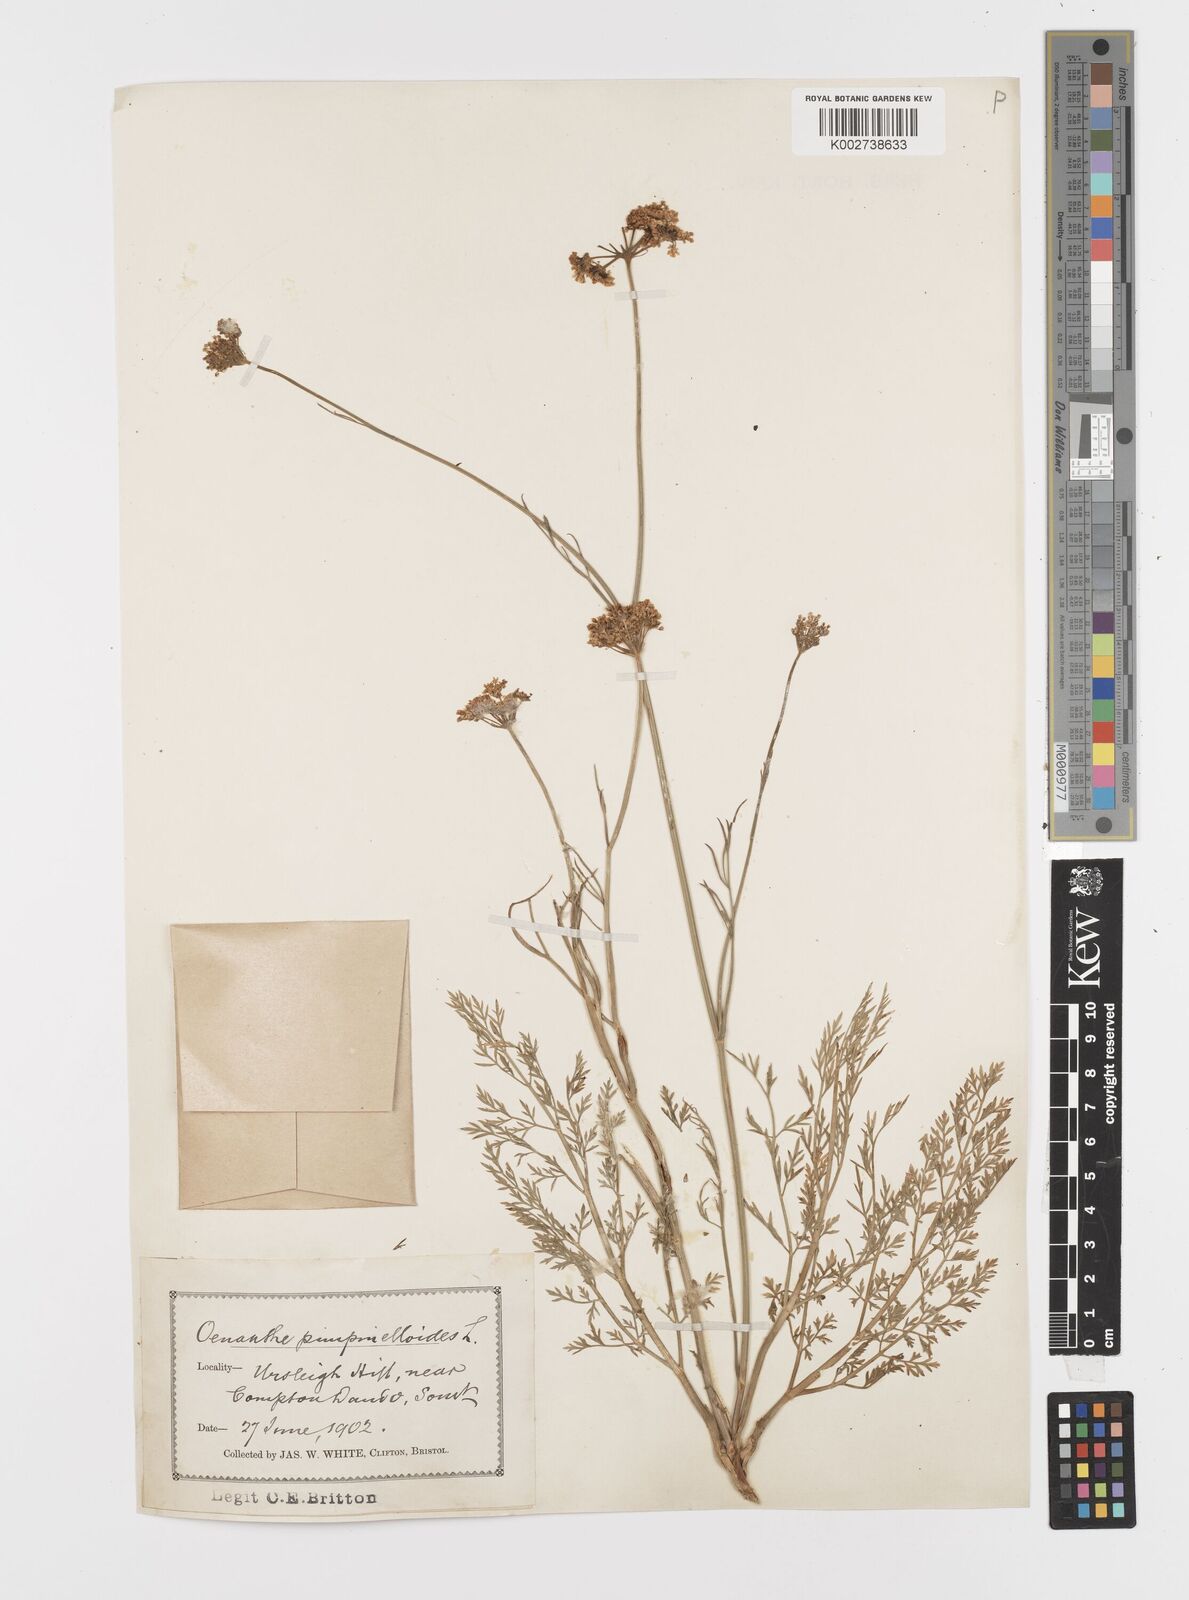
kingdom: Plantae
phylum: Tracheophyta
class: Magnoliopsida
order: Apiales
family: Apiaceae
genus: Oenanthe
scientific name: Oenanthe pimpinelloides
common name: Corky-fruited water-dropwort
